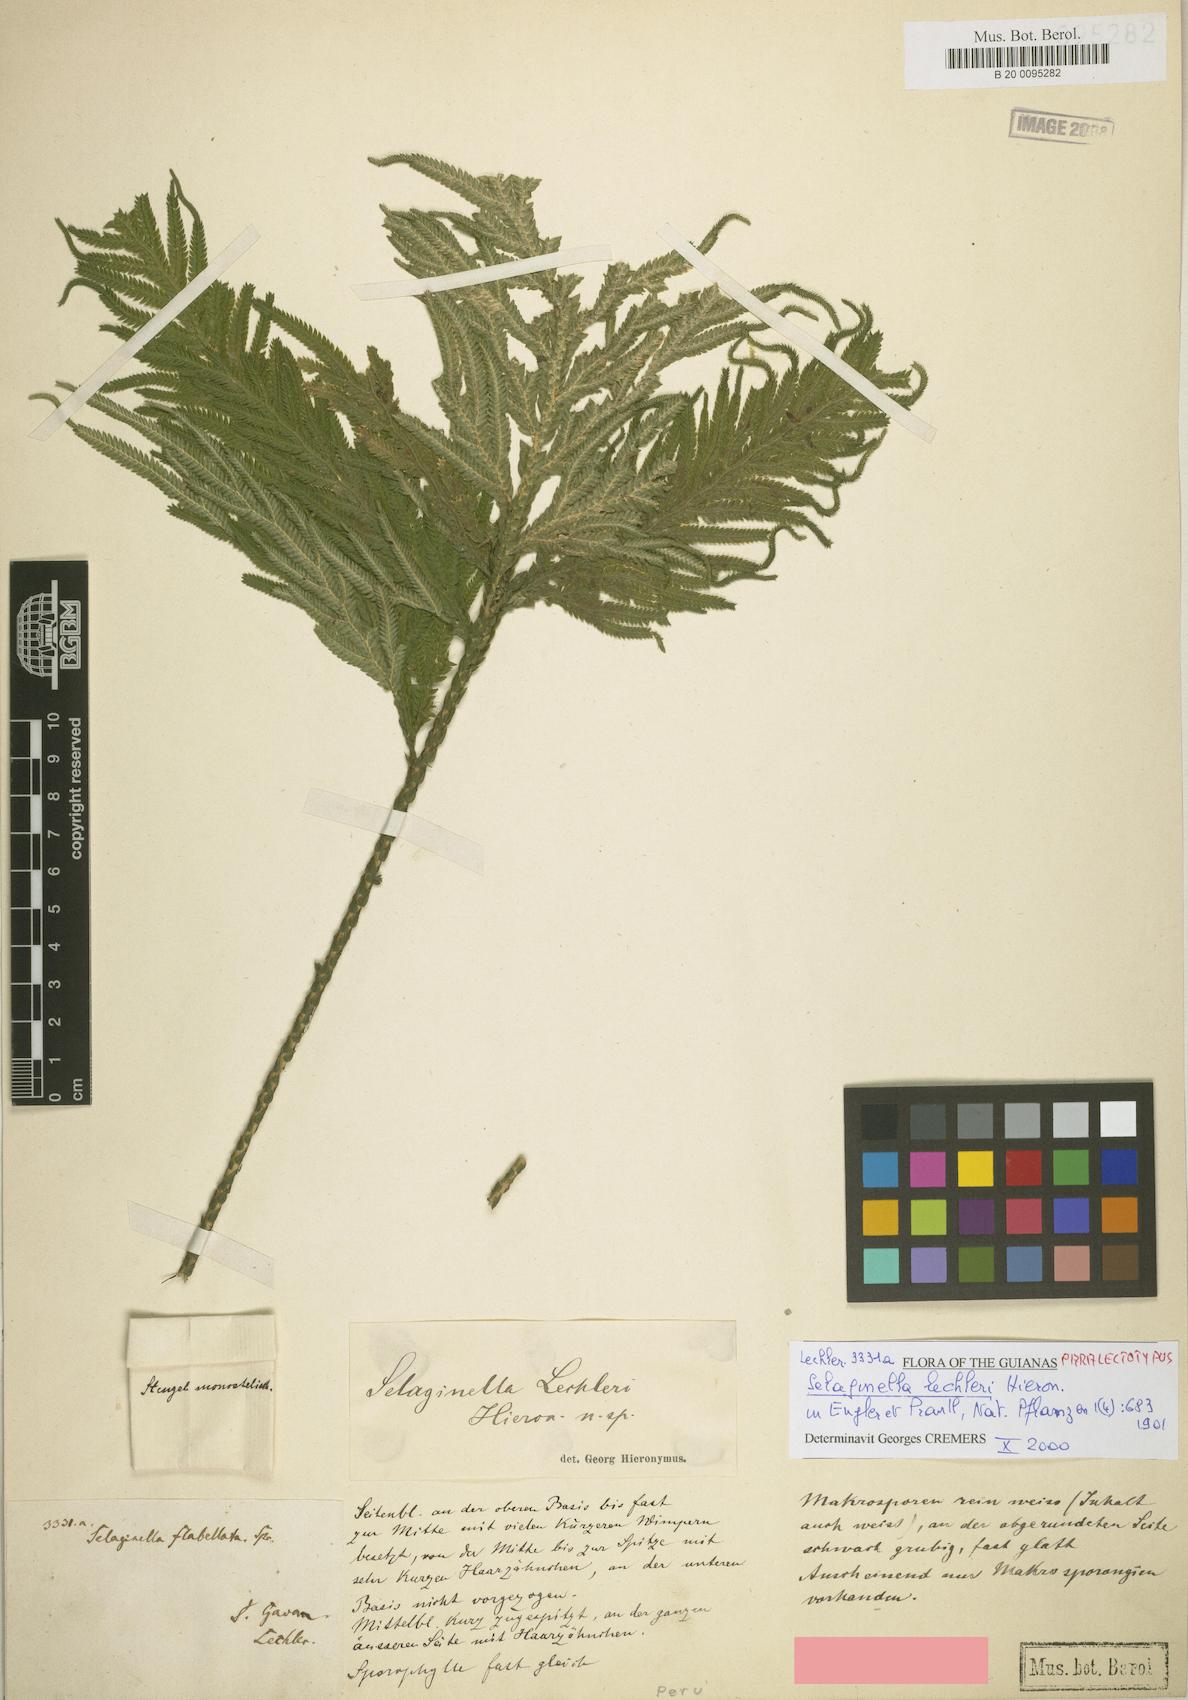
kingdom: Plantae
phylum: Tracheophyta
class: Lycopodiopsida
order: Selaginellales
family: Selaginellaceae
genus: Selaginella
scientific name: Selaginella lechleri
